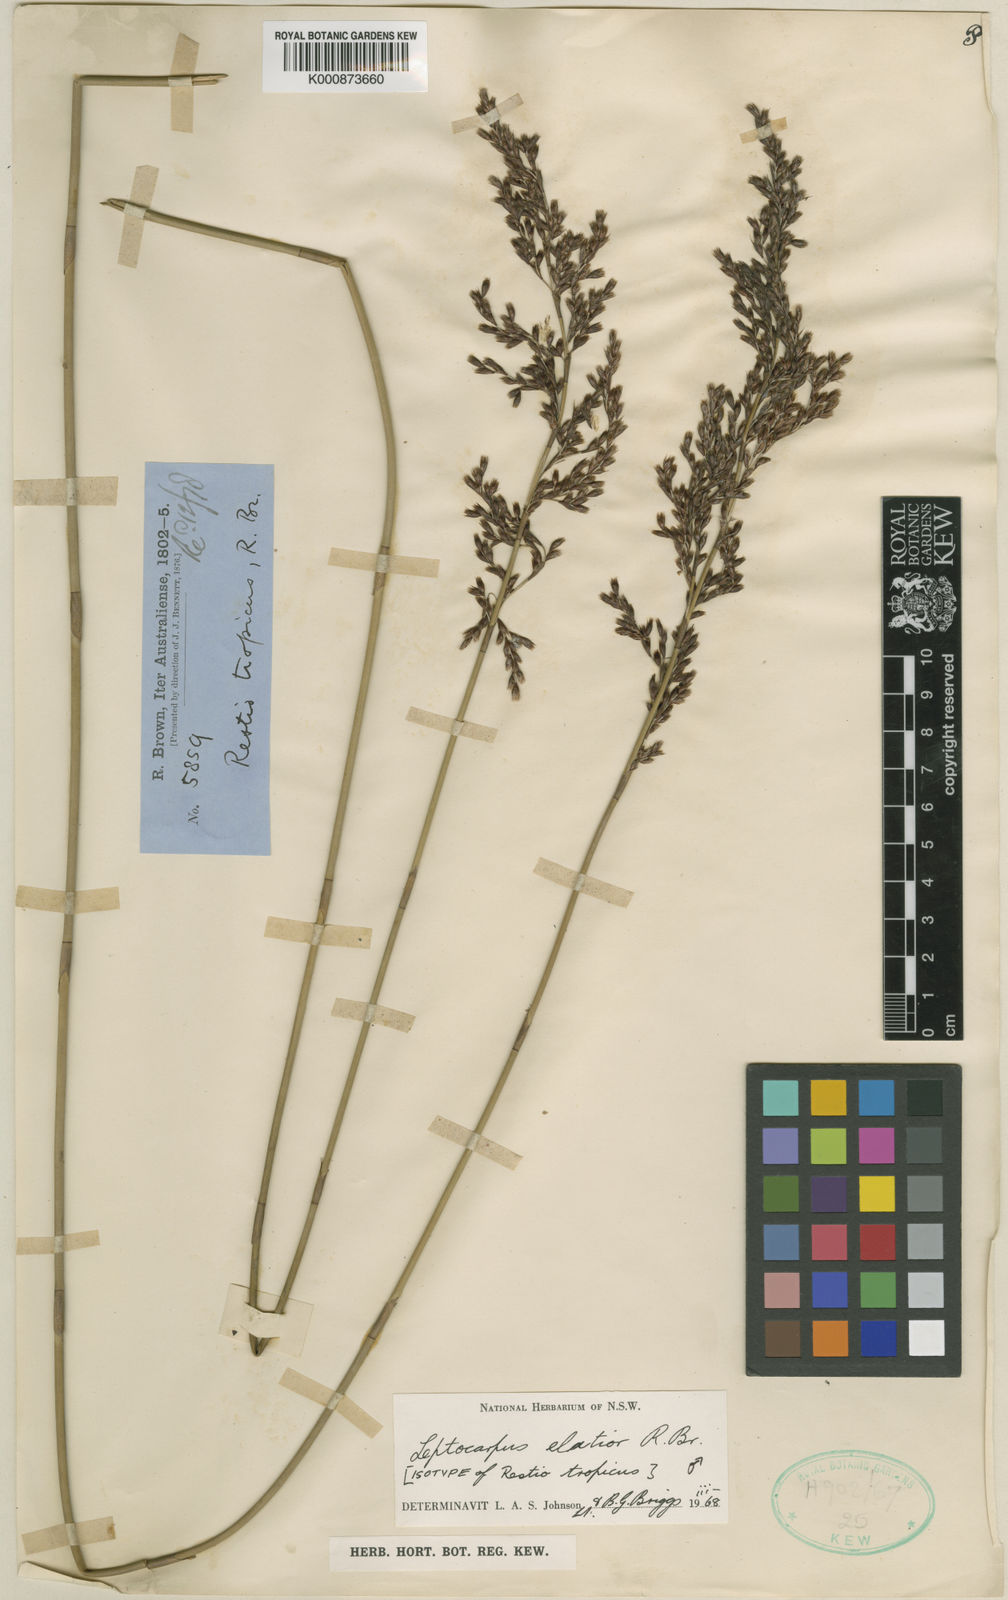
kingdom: Plantae
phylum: Tracheophyta
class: Liliopsida
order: Poales
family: Restionaceae
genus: Dapsilanthus
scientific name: Dapsilanthus elatior
